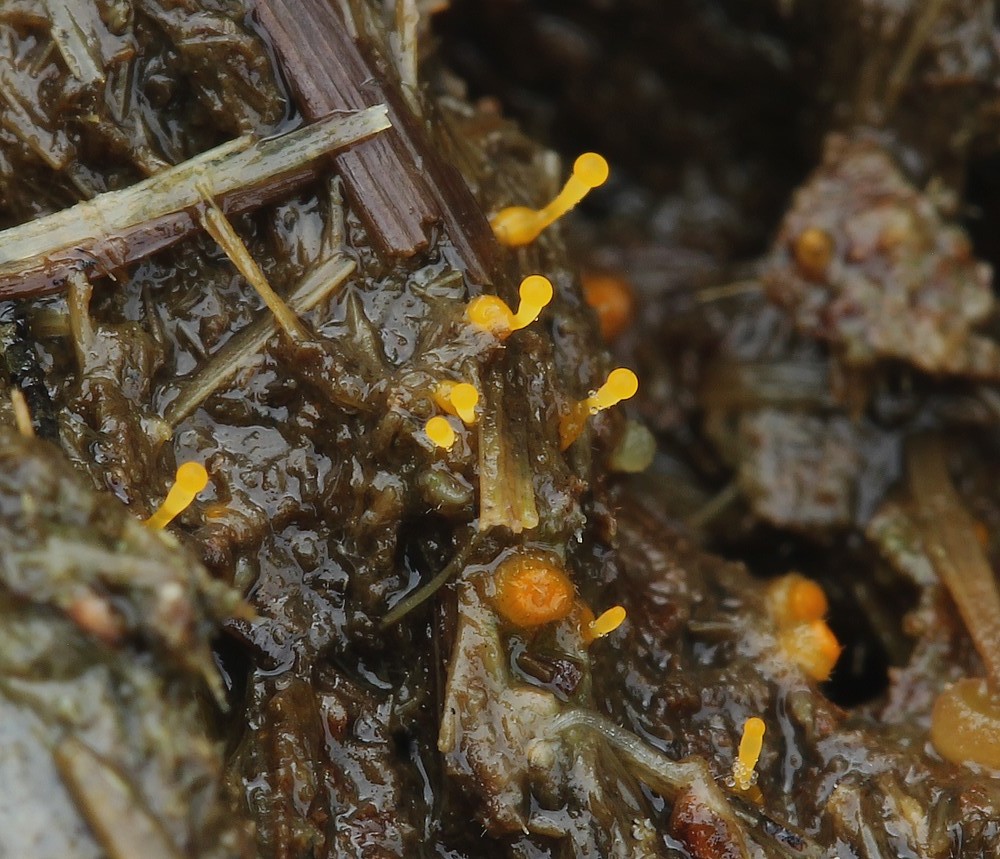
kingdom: Fungi
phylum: Mucoromycota
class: Mucoromycetes
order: Mucorales
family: Pilobolaceae
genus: Pilobolus
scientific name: Pilobolus
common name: boldkaster
